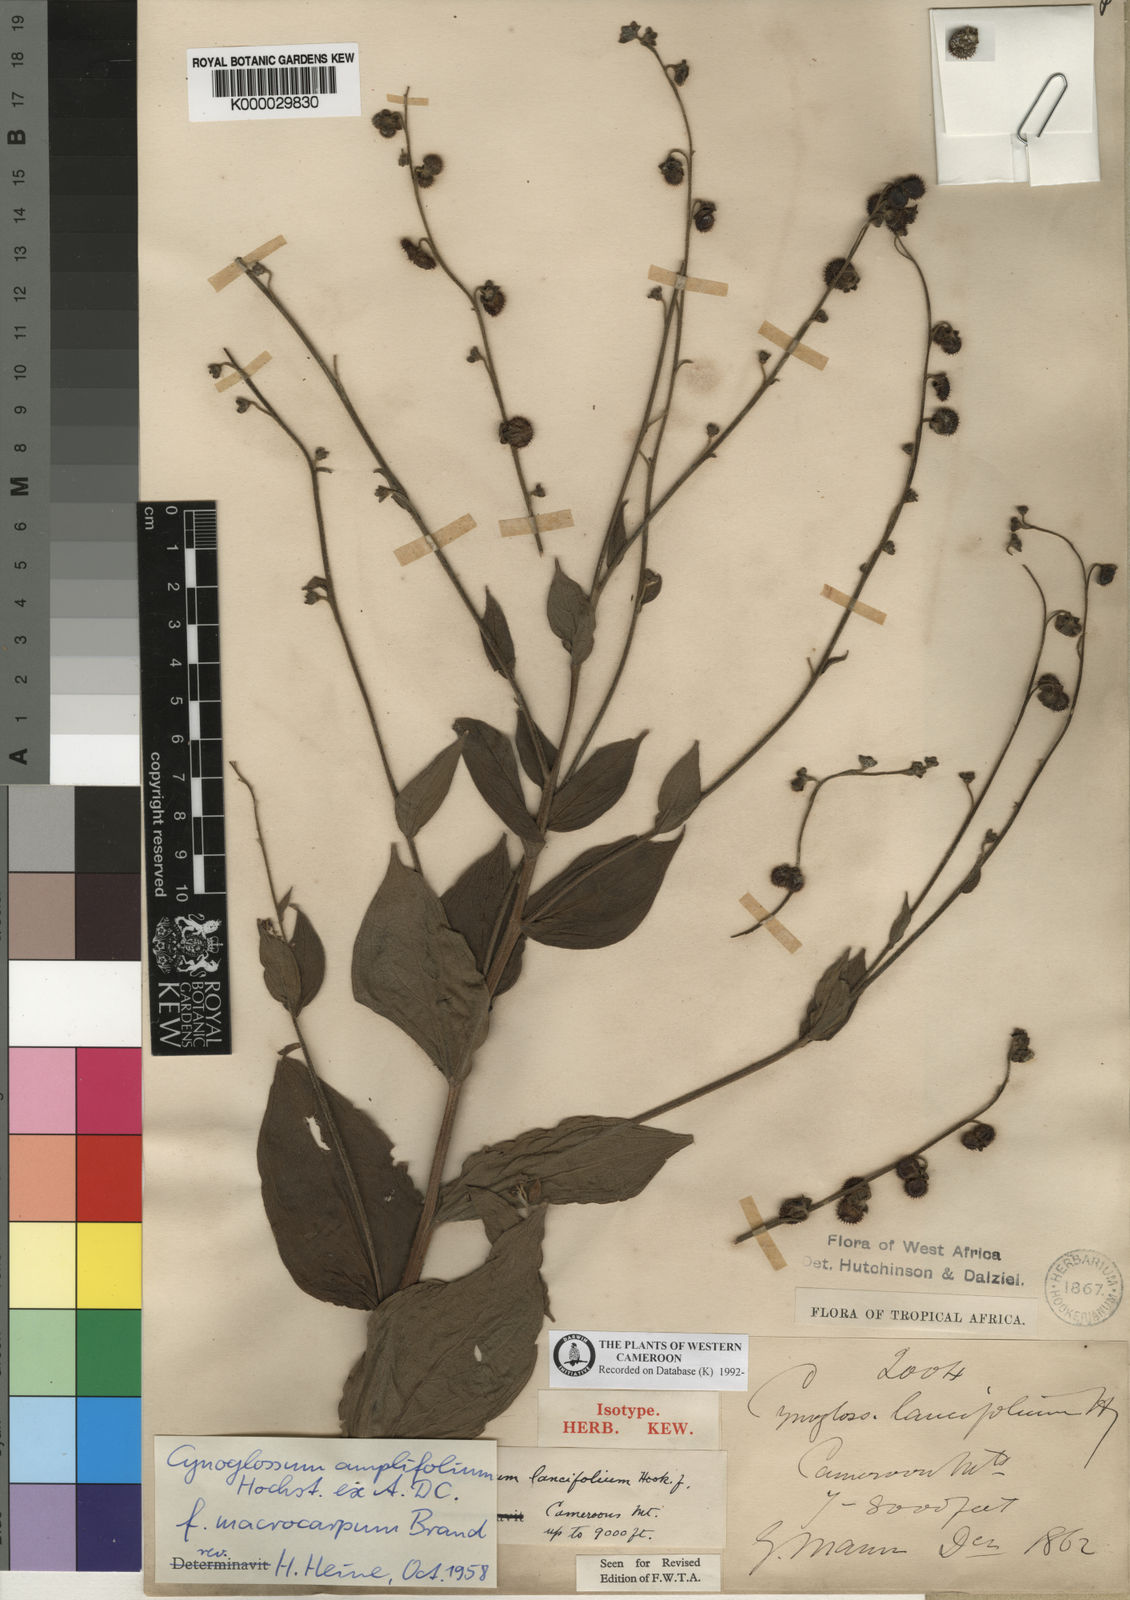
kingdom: Plantae
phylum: Tracheophyta
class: Magnoliopsida
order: Boraginales
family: Boraginaceae
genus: Cynoglossum
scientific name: Cynoglossum amplifolium
